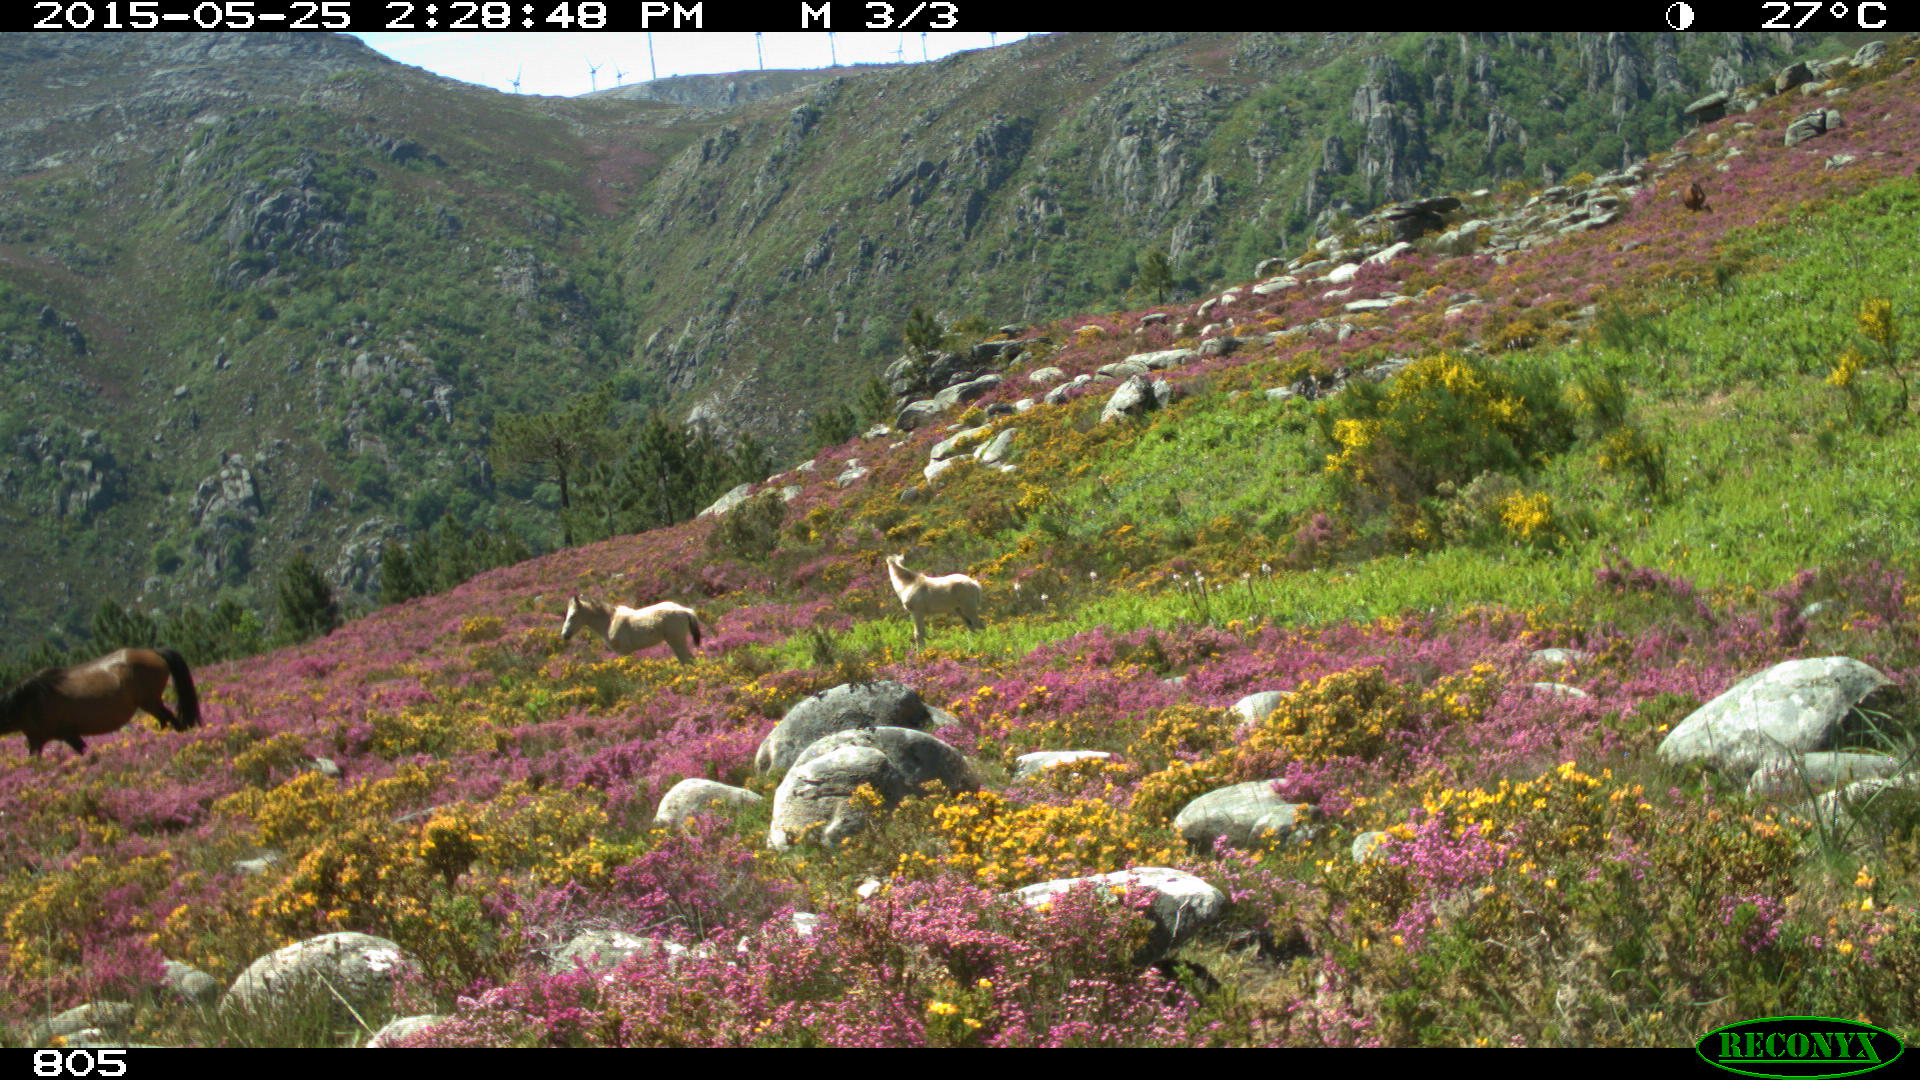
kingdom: Animalia
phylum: Chordata
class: Mammalia
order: Perissodactyla
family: Equidae
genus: Equus
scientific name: Equus caballus
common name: Horse
